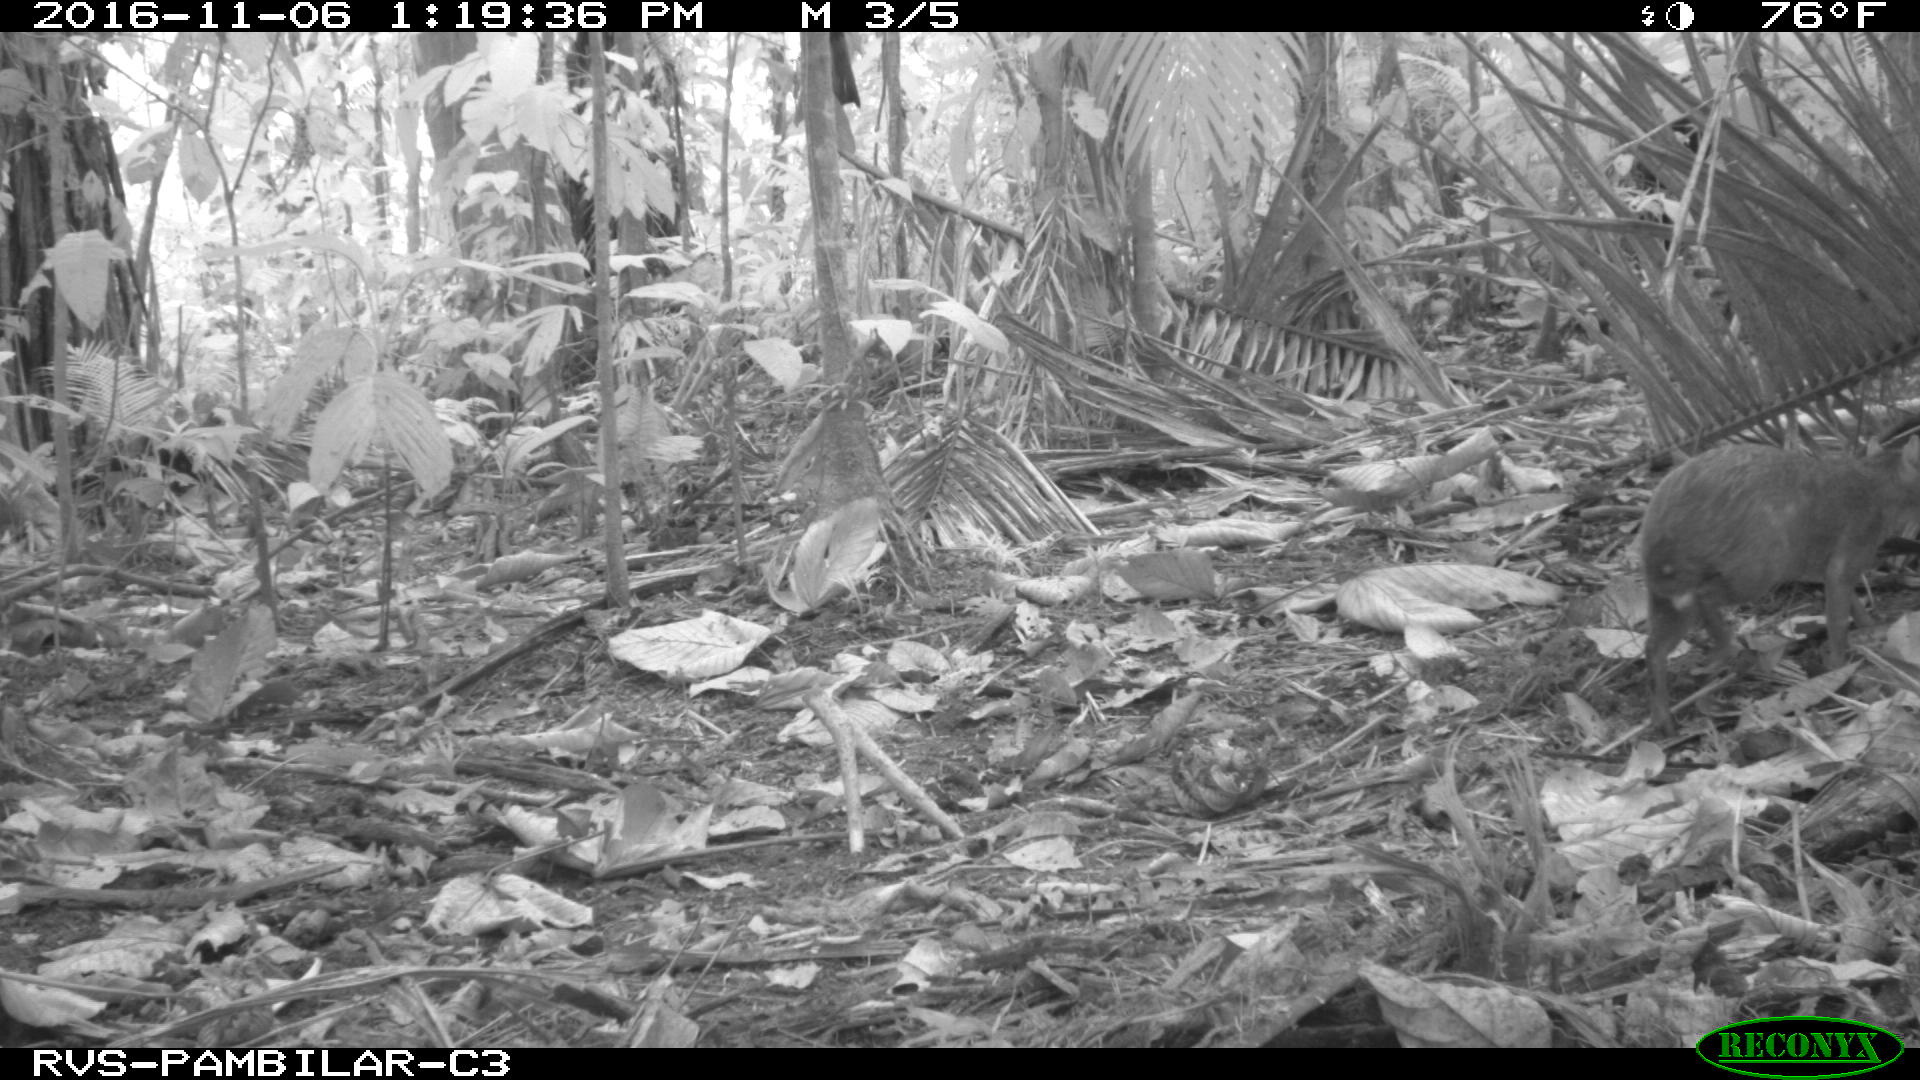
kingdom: Animalia
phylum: Chordata
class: Mammalia
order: Rodentia
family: Dasyproctidae
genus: Dasyprocta
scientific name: Dasyprocta punctata
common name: Central american agouti
